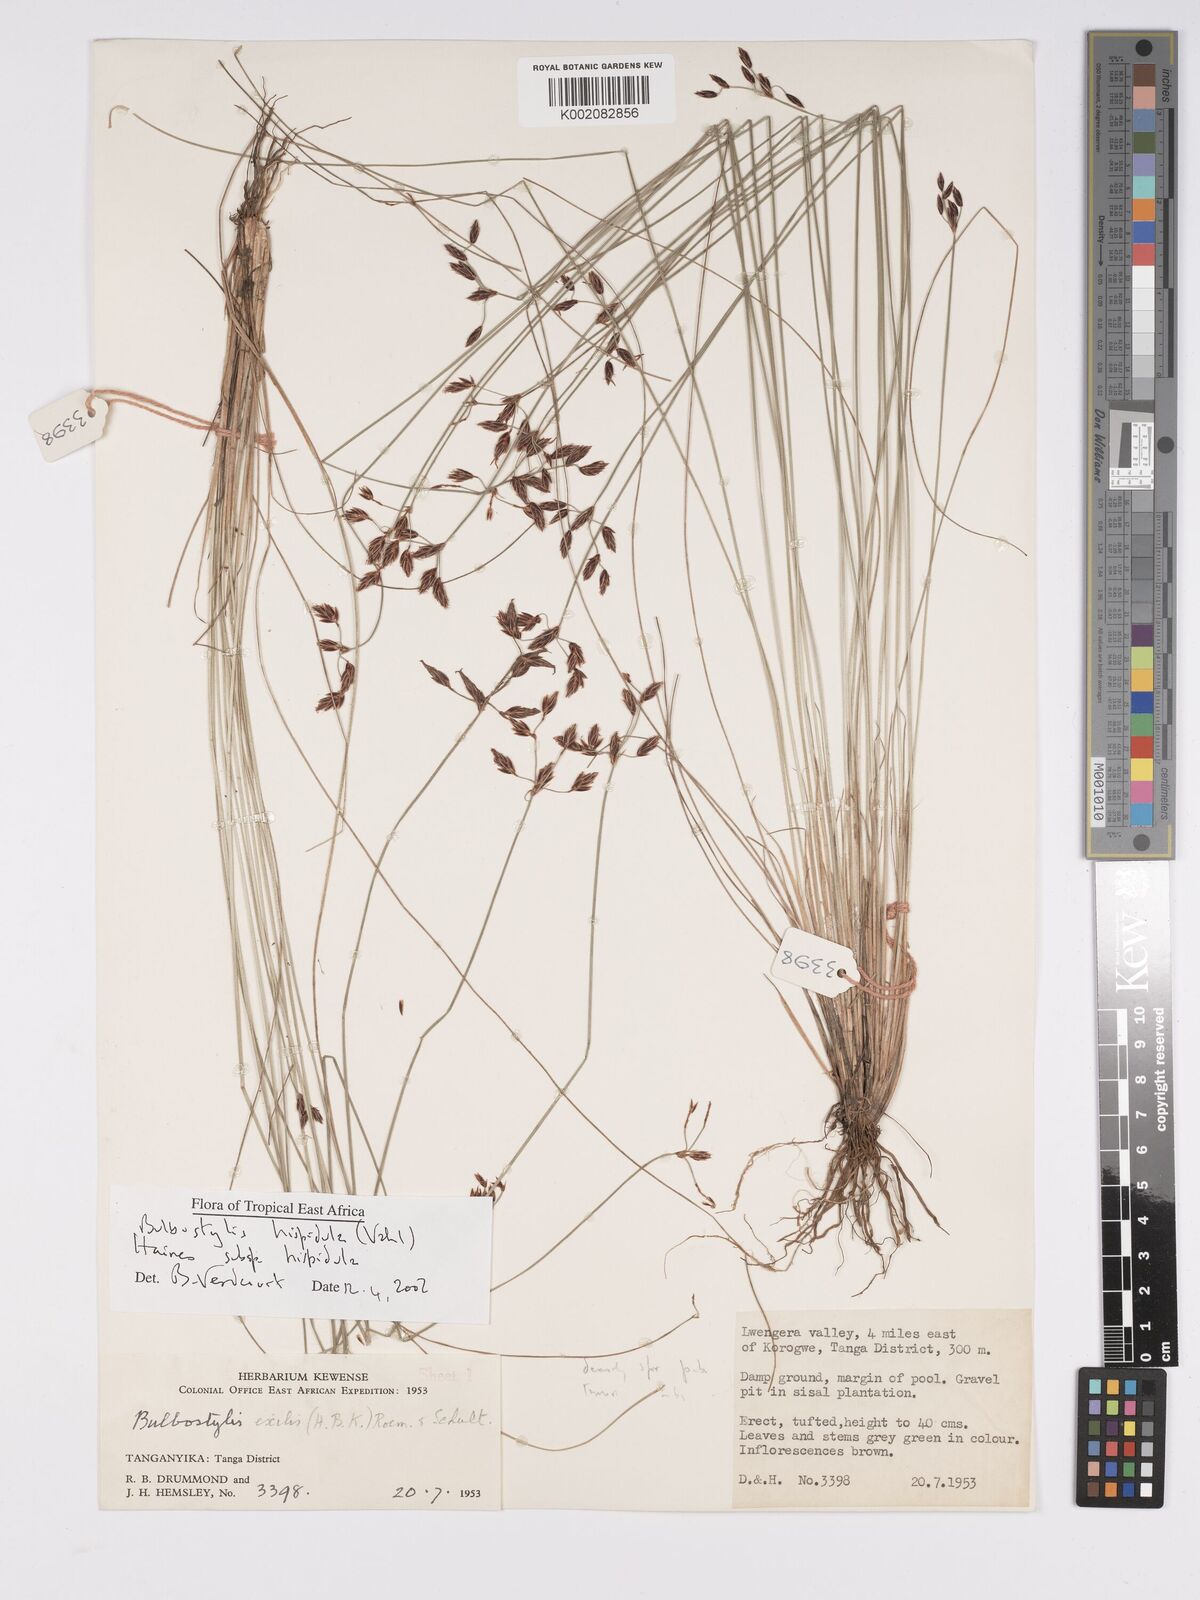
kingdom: Plantae
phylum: Tracheophyta
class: Liliopsida
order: Poales
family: Cyperaceae
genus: Bulbostylis
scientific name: Bulbostylis hispidula
